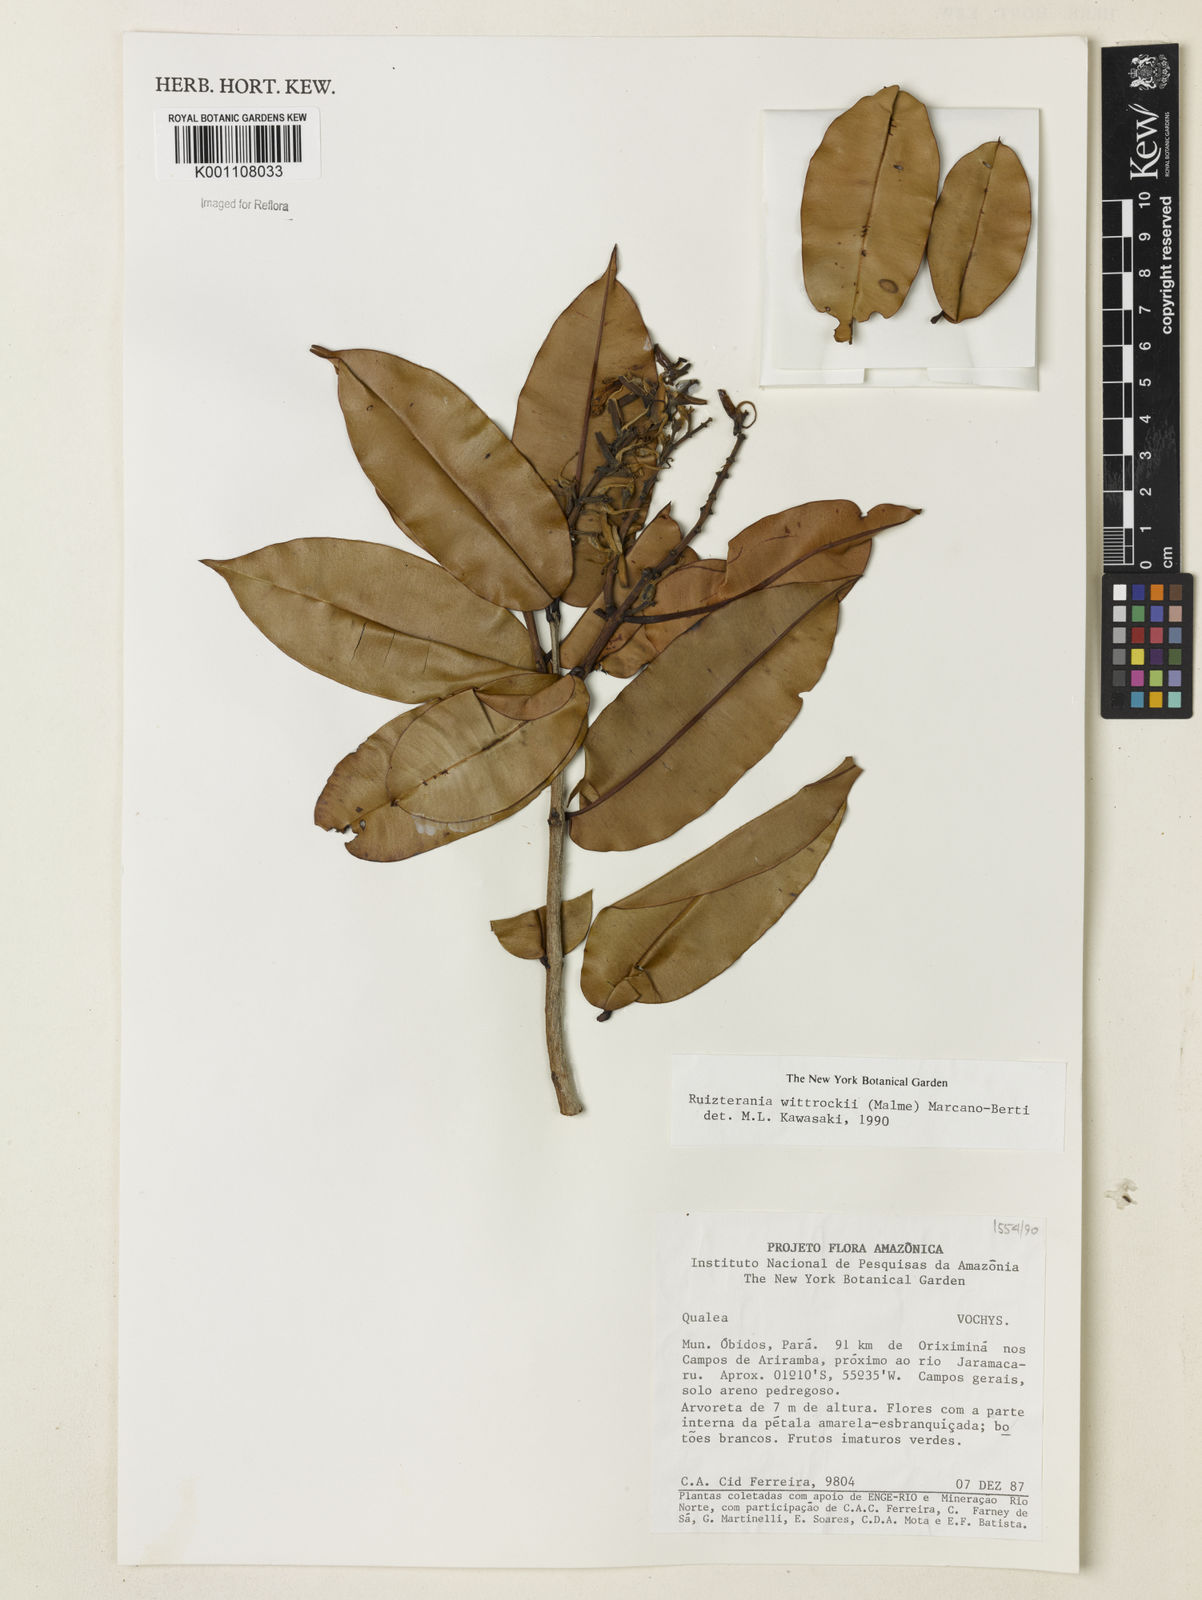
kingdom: Plantae
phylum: Tracheophyta
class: Magnoliopsida
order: Myrtales
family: Vochysiaceae
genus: Ruizterania
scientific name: Ruizterania wittrockii
